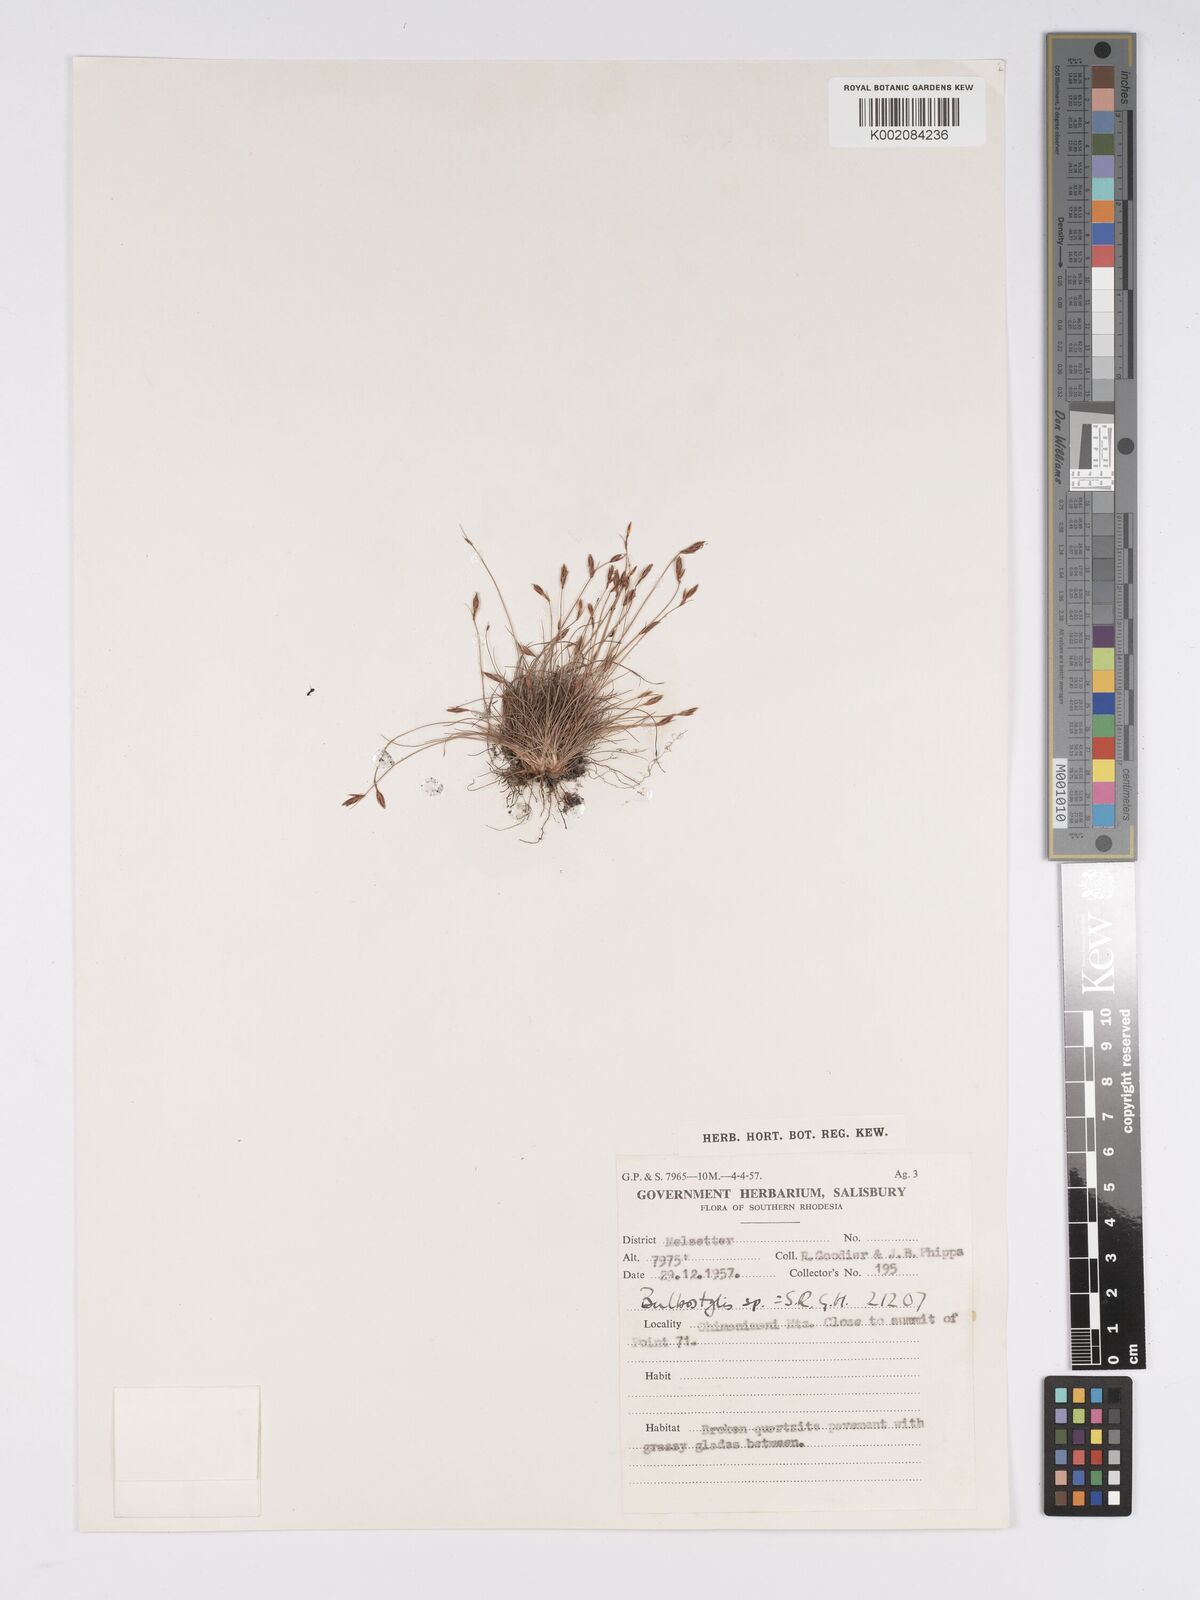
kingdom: Plantae
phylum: Tracheophyta
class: Liliopsida
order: Poales
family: Cyperaceae
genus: Bulbostylis
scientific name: Bulbostylis
